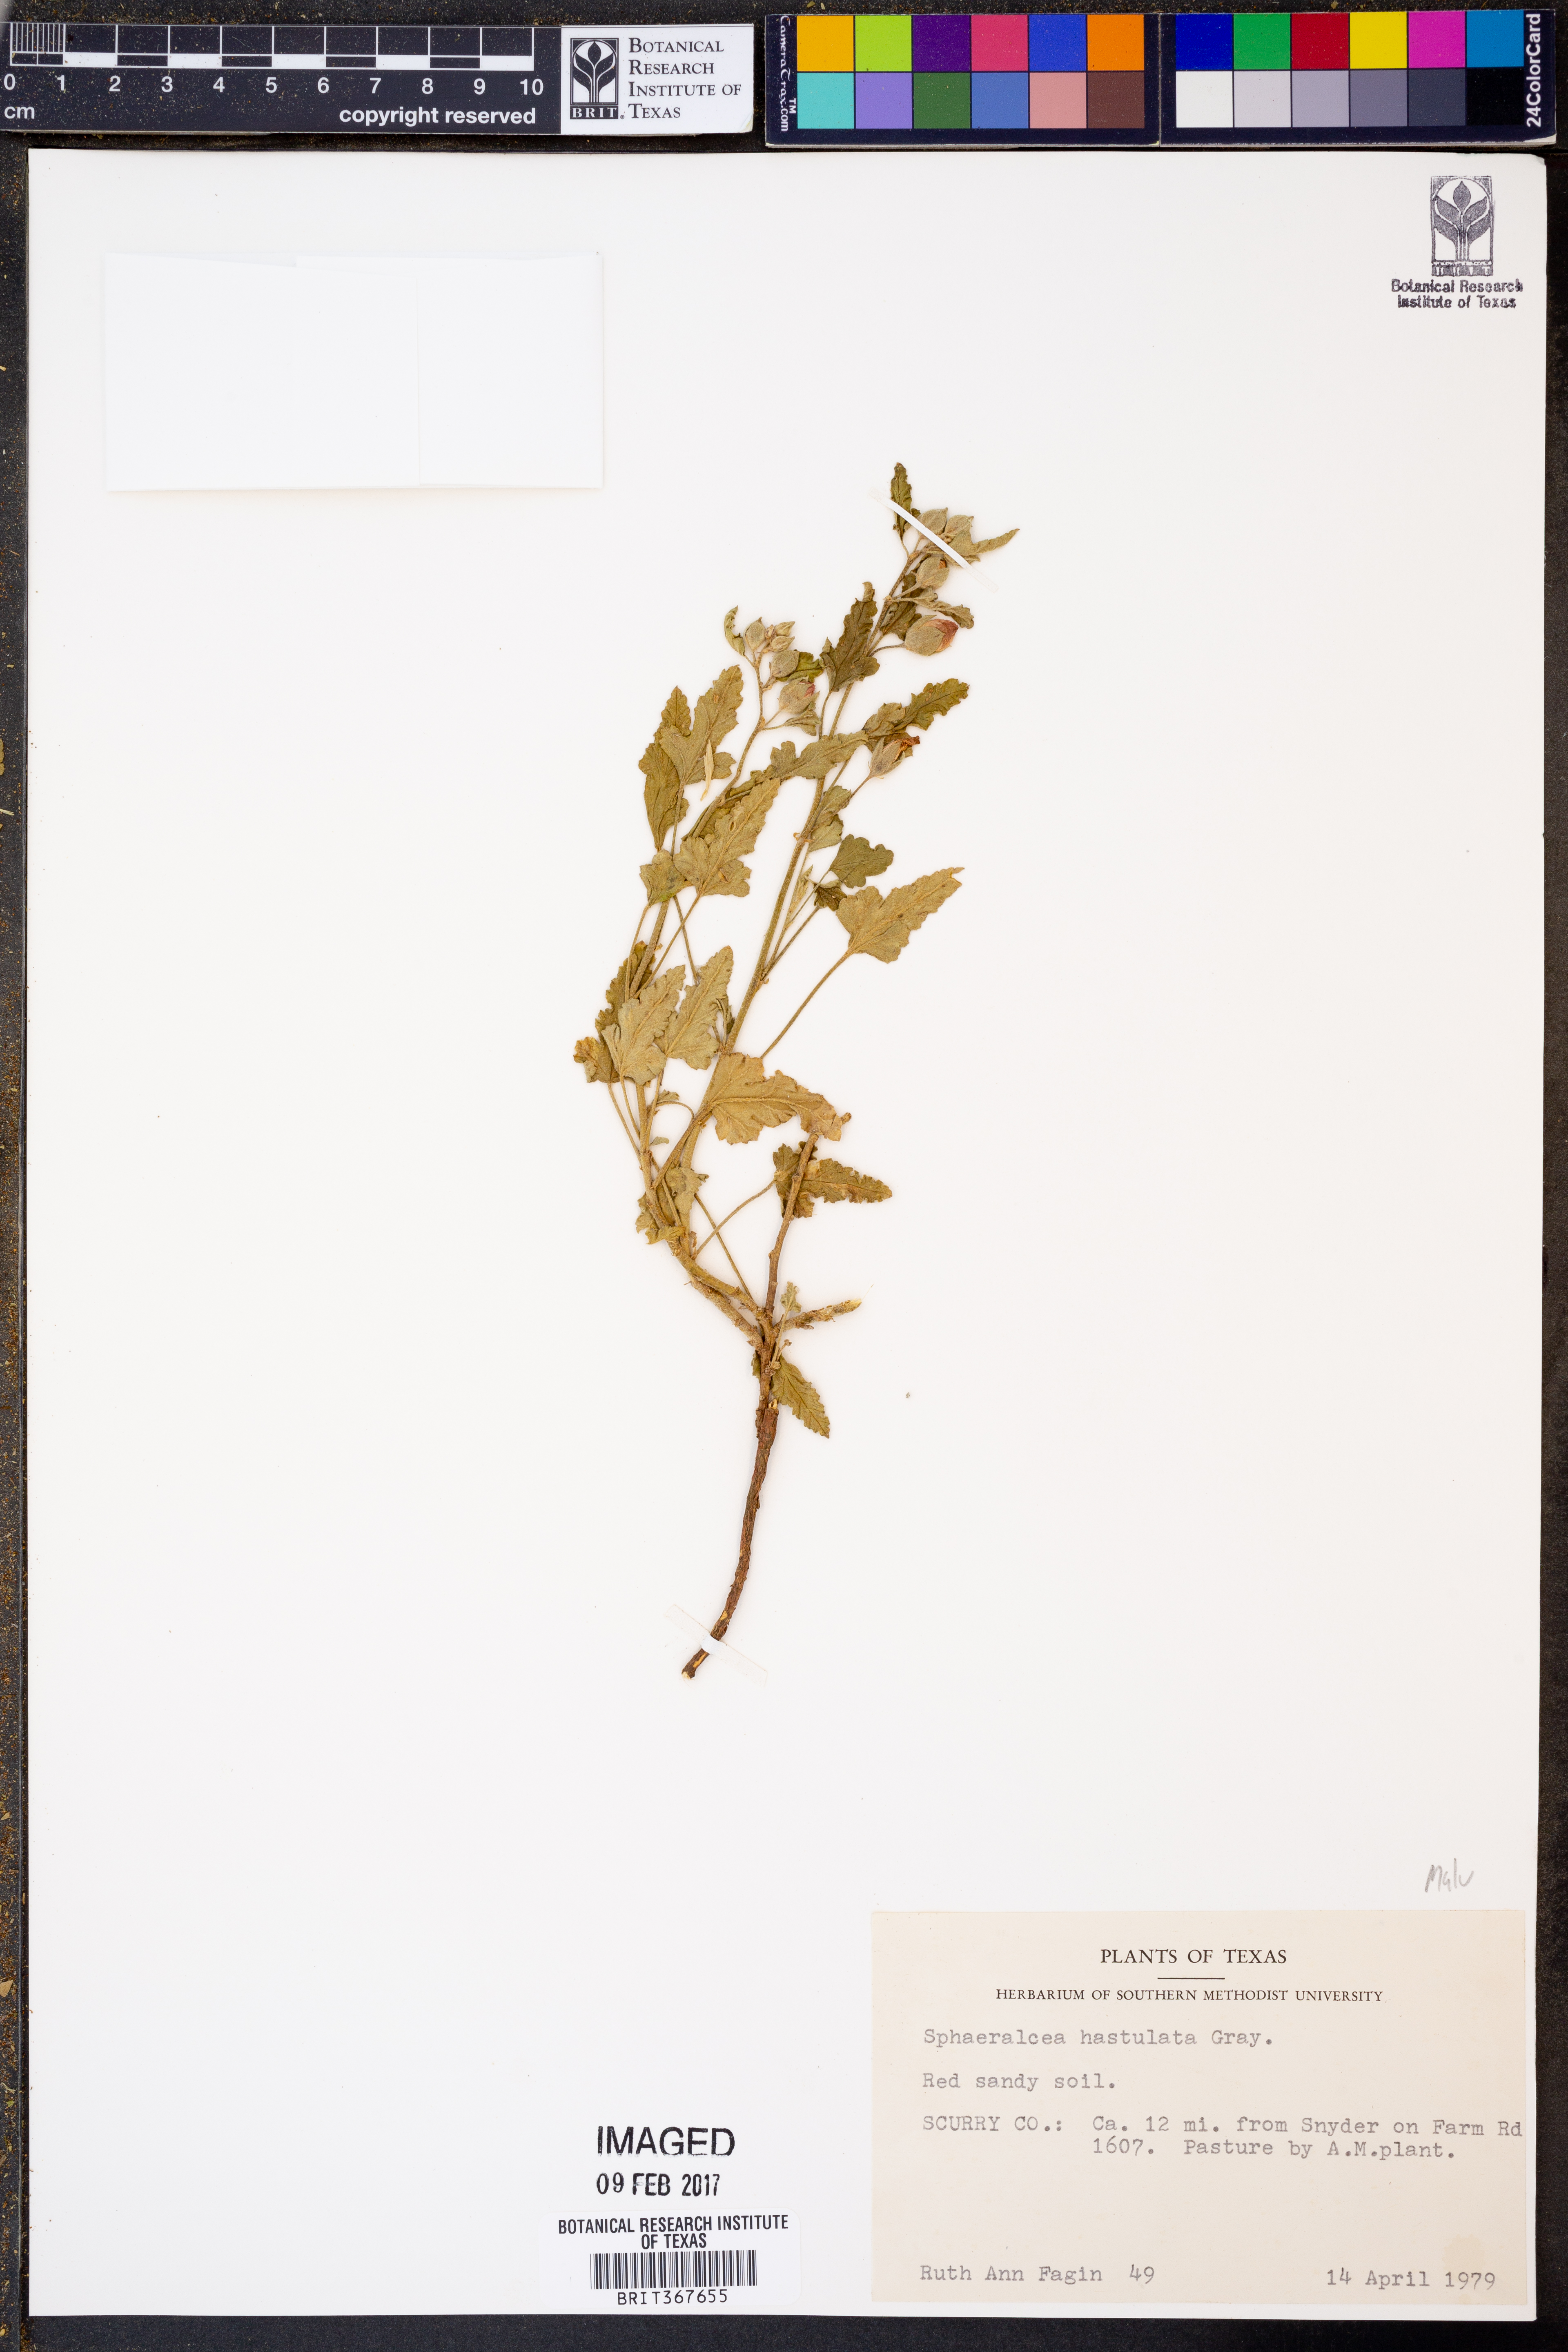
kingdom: Plantae
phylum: Tracheophyta
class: Magnoliopsida
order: Malvales
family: Malvaceae
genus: Sphaeralcea
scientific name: Sphaeralcea hastulata
